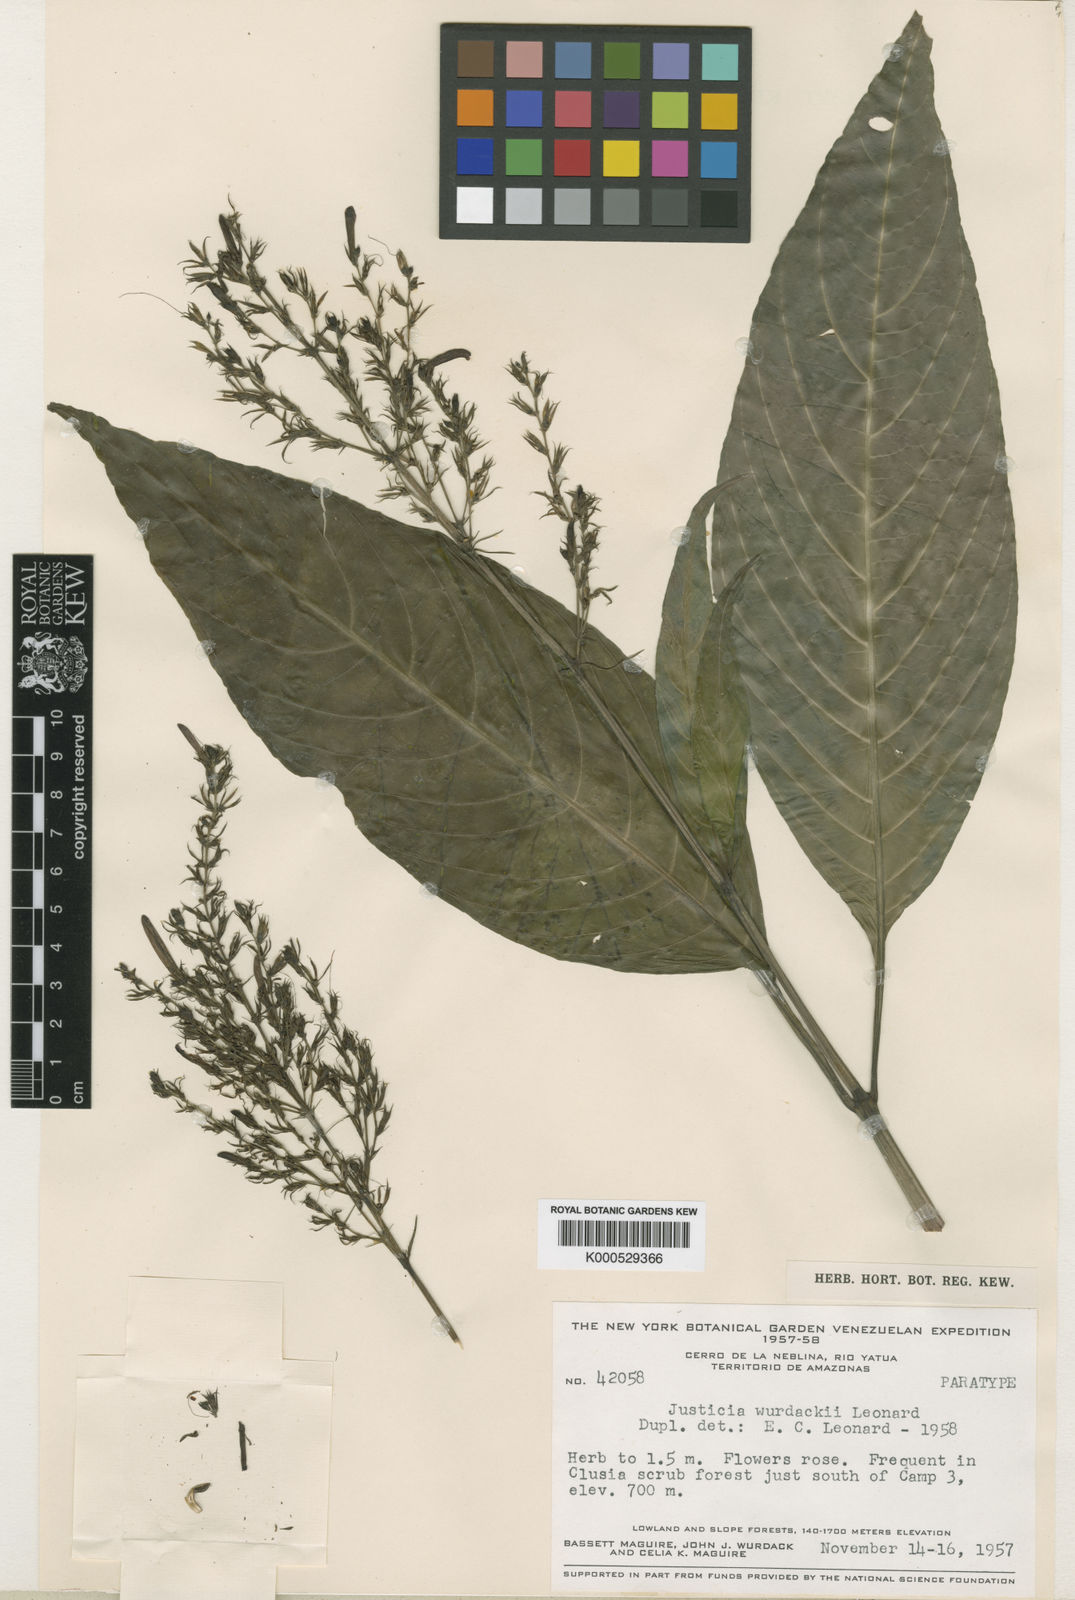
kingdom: Plantae
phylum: Tracheophyta
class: Magnoliopsida
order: Lamiales
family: Acanthaceae
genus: Justicia
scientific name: Justicia
